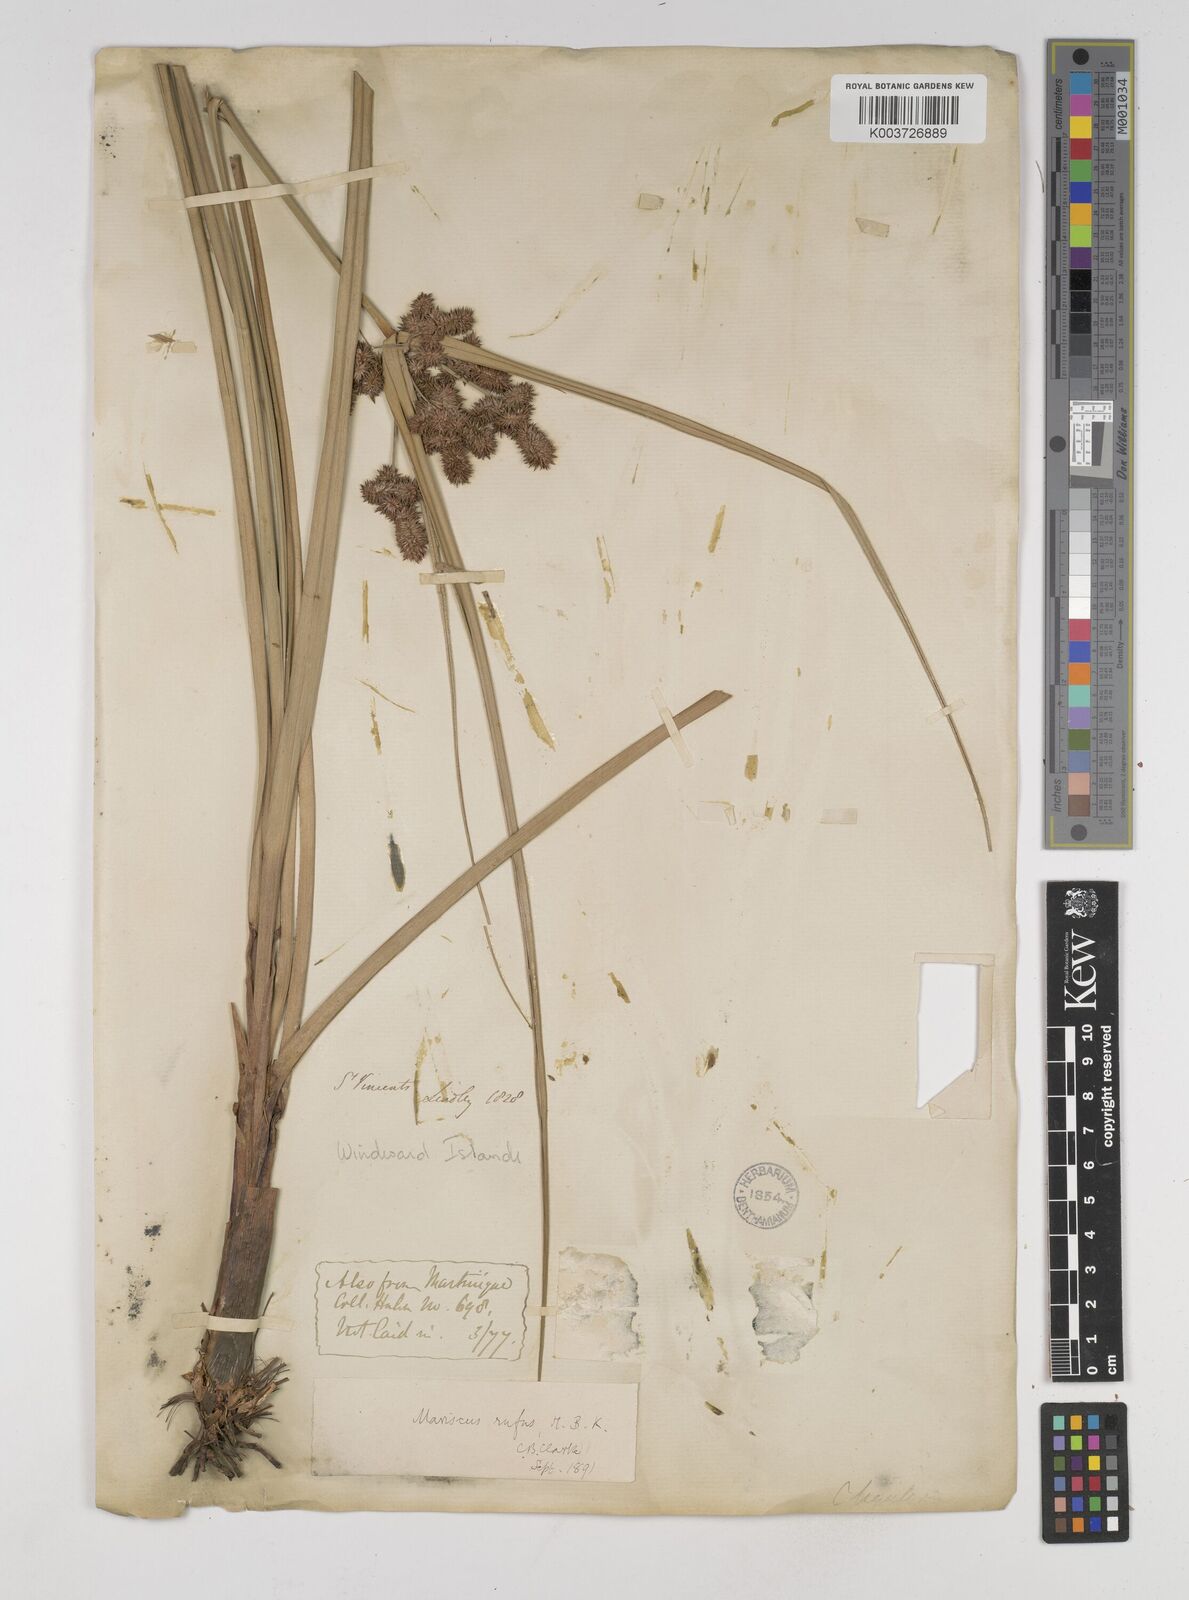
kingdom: Plantae
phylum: Tracheophyta
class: Liliopsida
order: Poales
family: Cyperaceae
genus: Cyperus
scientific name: Cyperus ligularis
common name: Swamp flat sedge
